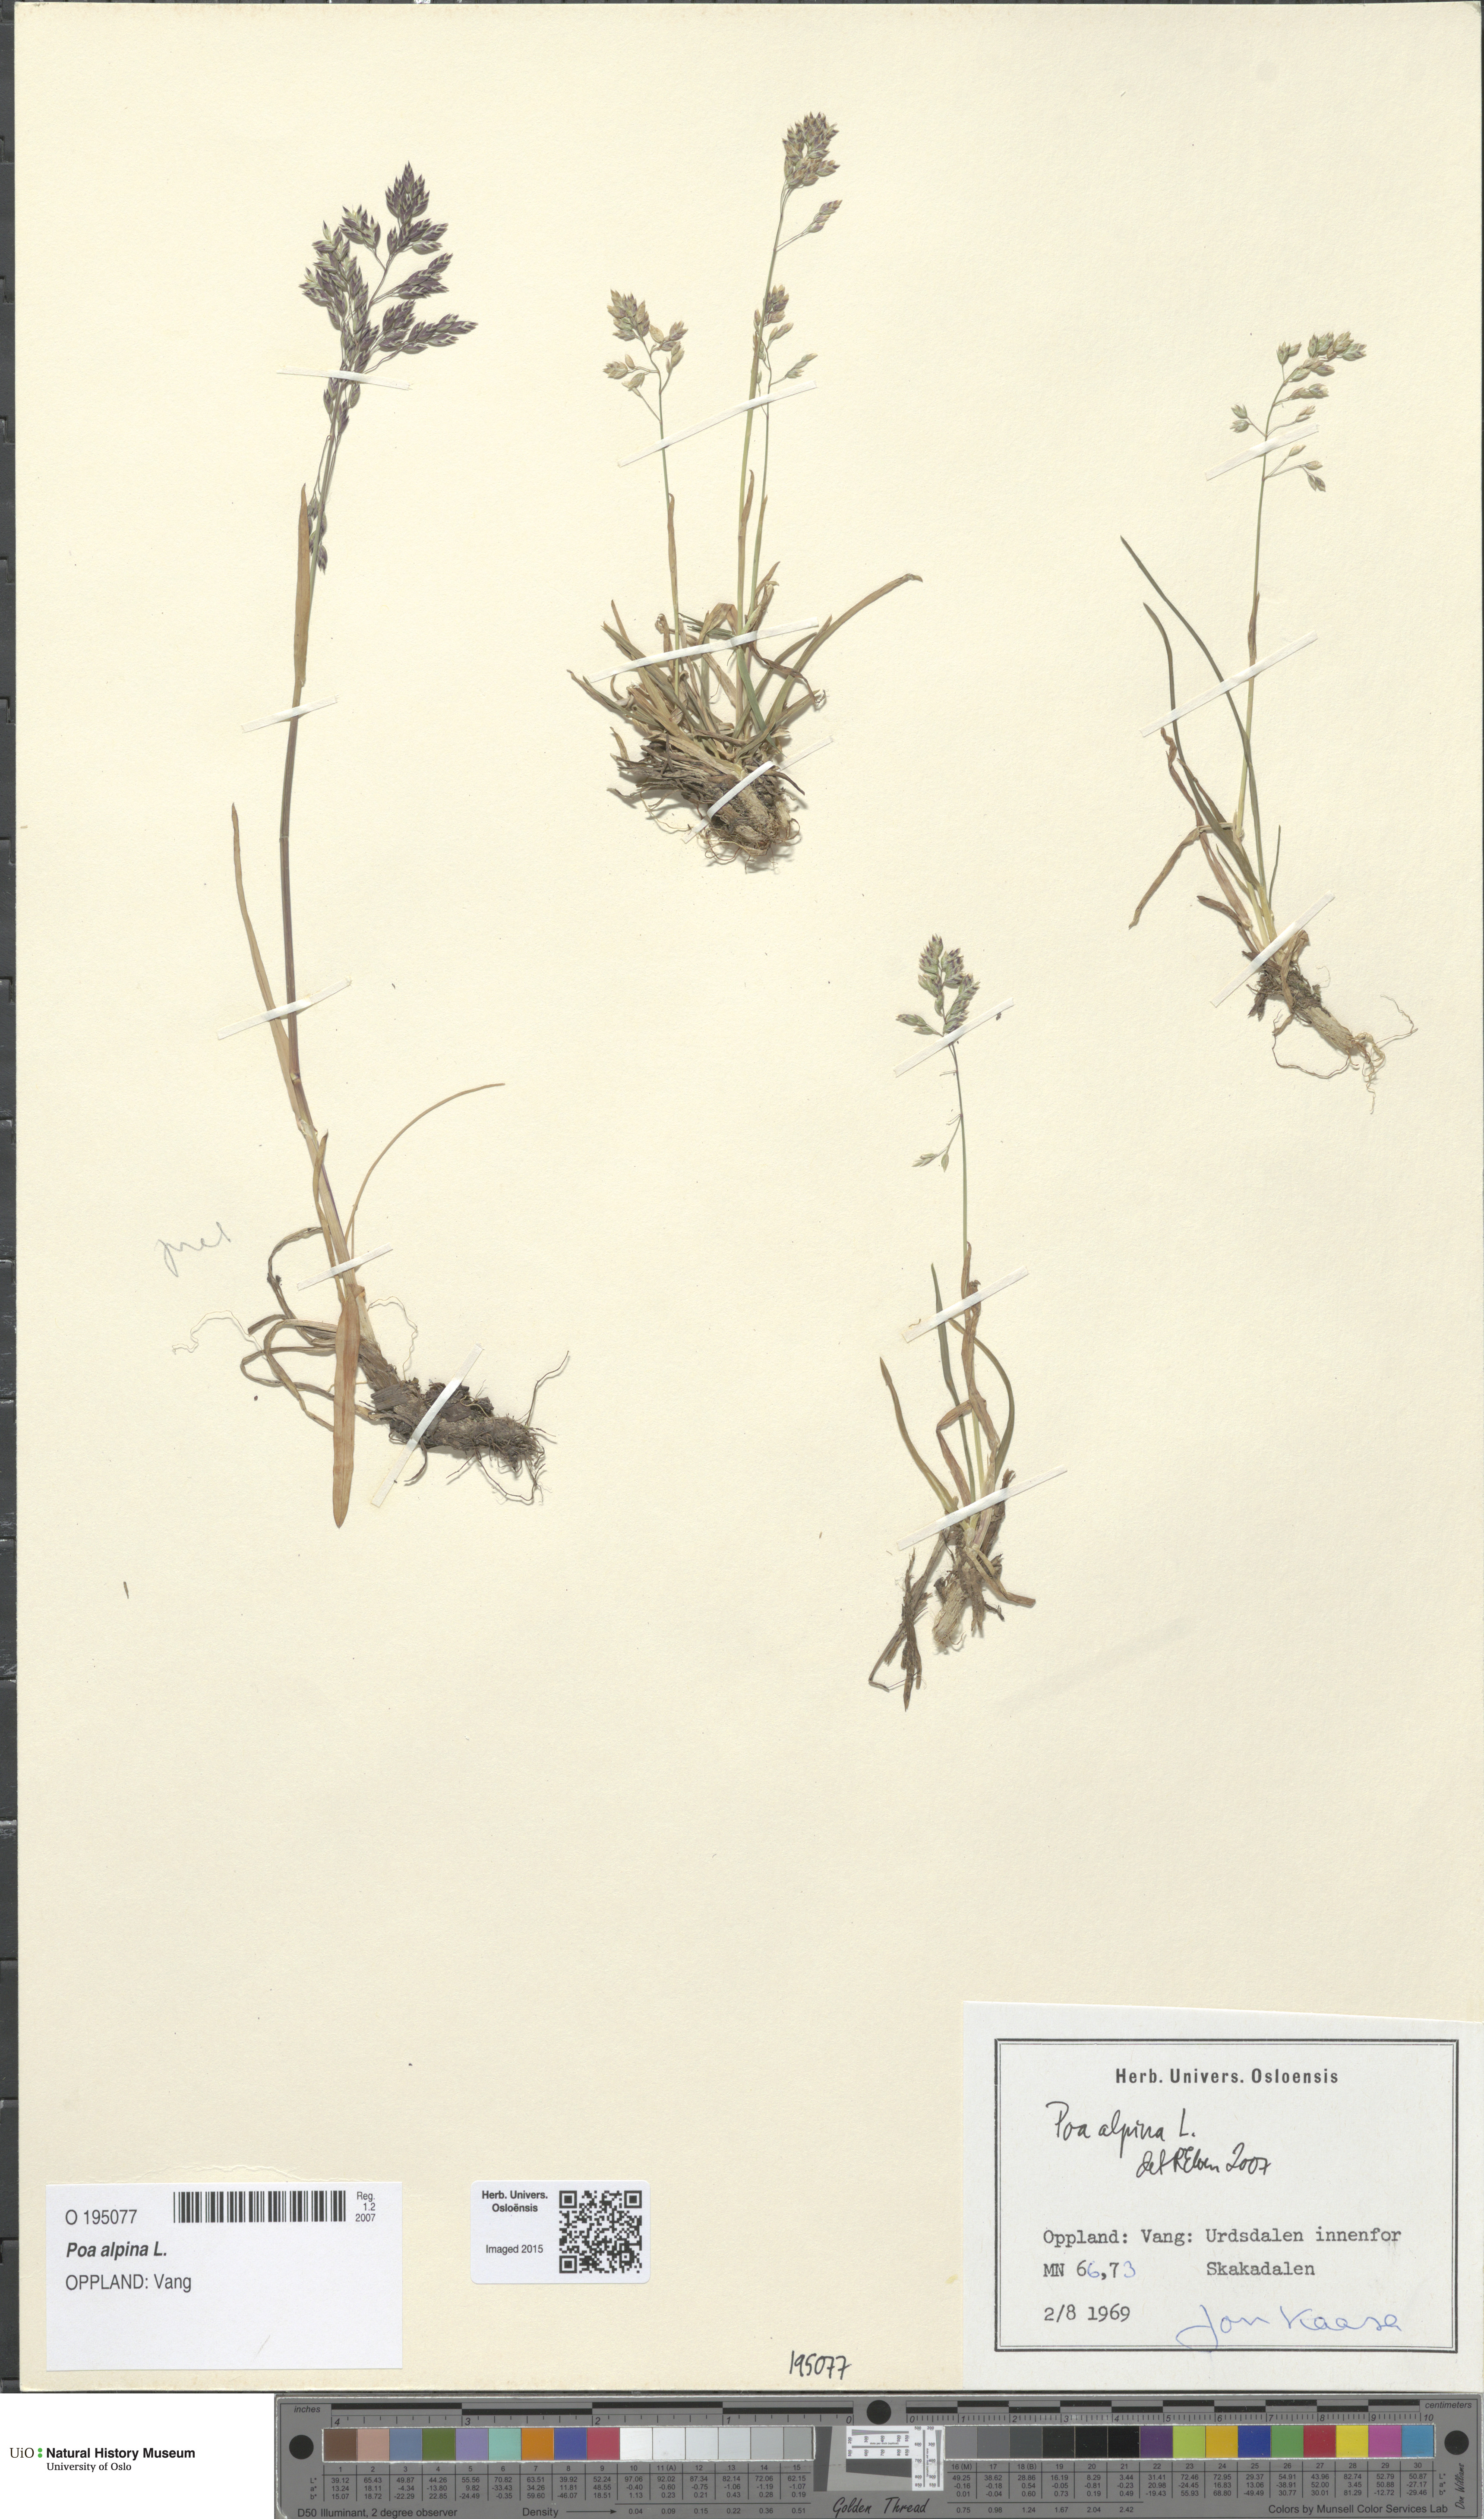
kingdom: Plantae
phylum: Tracheophyta
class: Liliopsida
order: Poales
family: Poaceae
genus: Poa
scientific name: Poa alpina
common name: Alpine bluegrass
